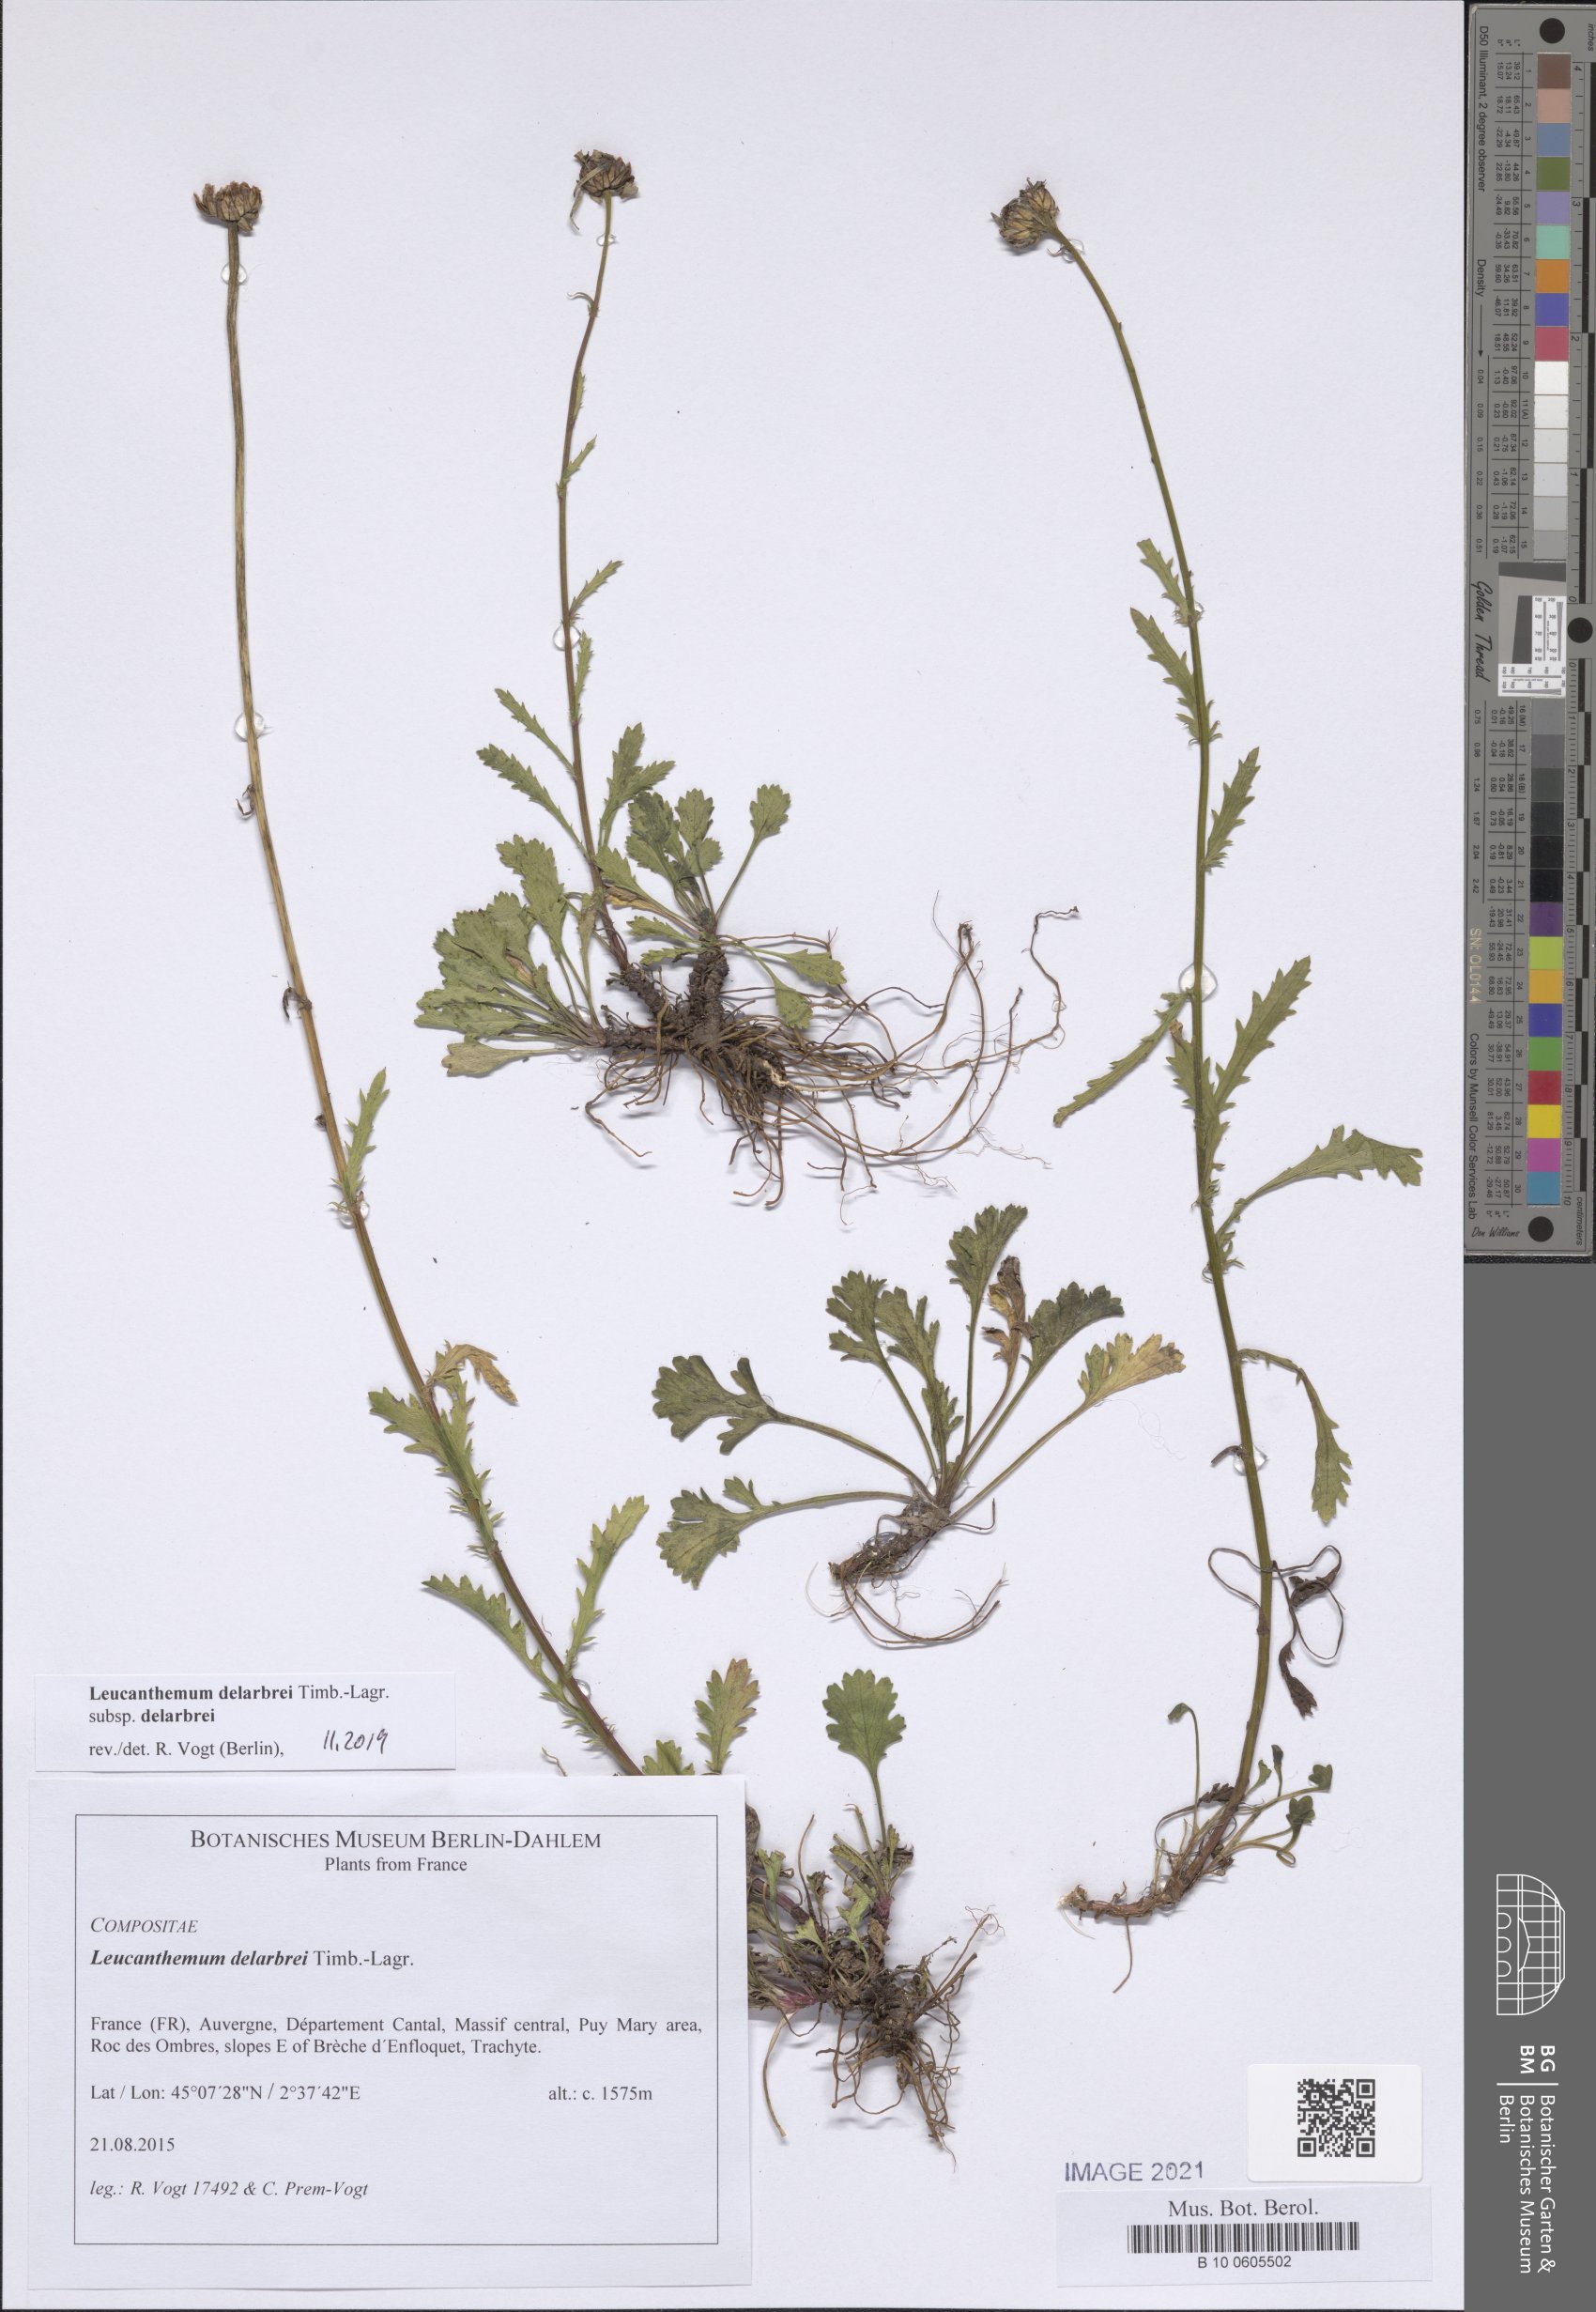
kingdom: Plantae
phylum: Tracheophyta
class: Magnoliopsida
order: Asterales
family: Asteraceae
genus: Leucanthemum
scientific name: Leucanthemum delarbrei
